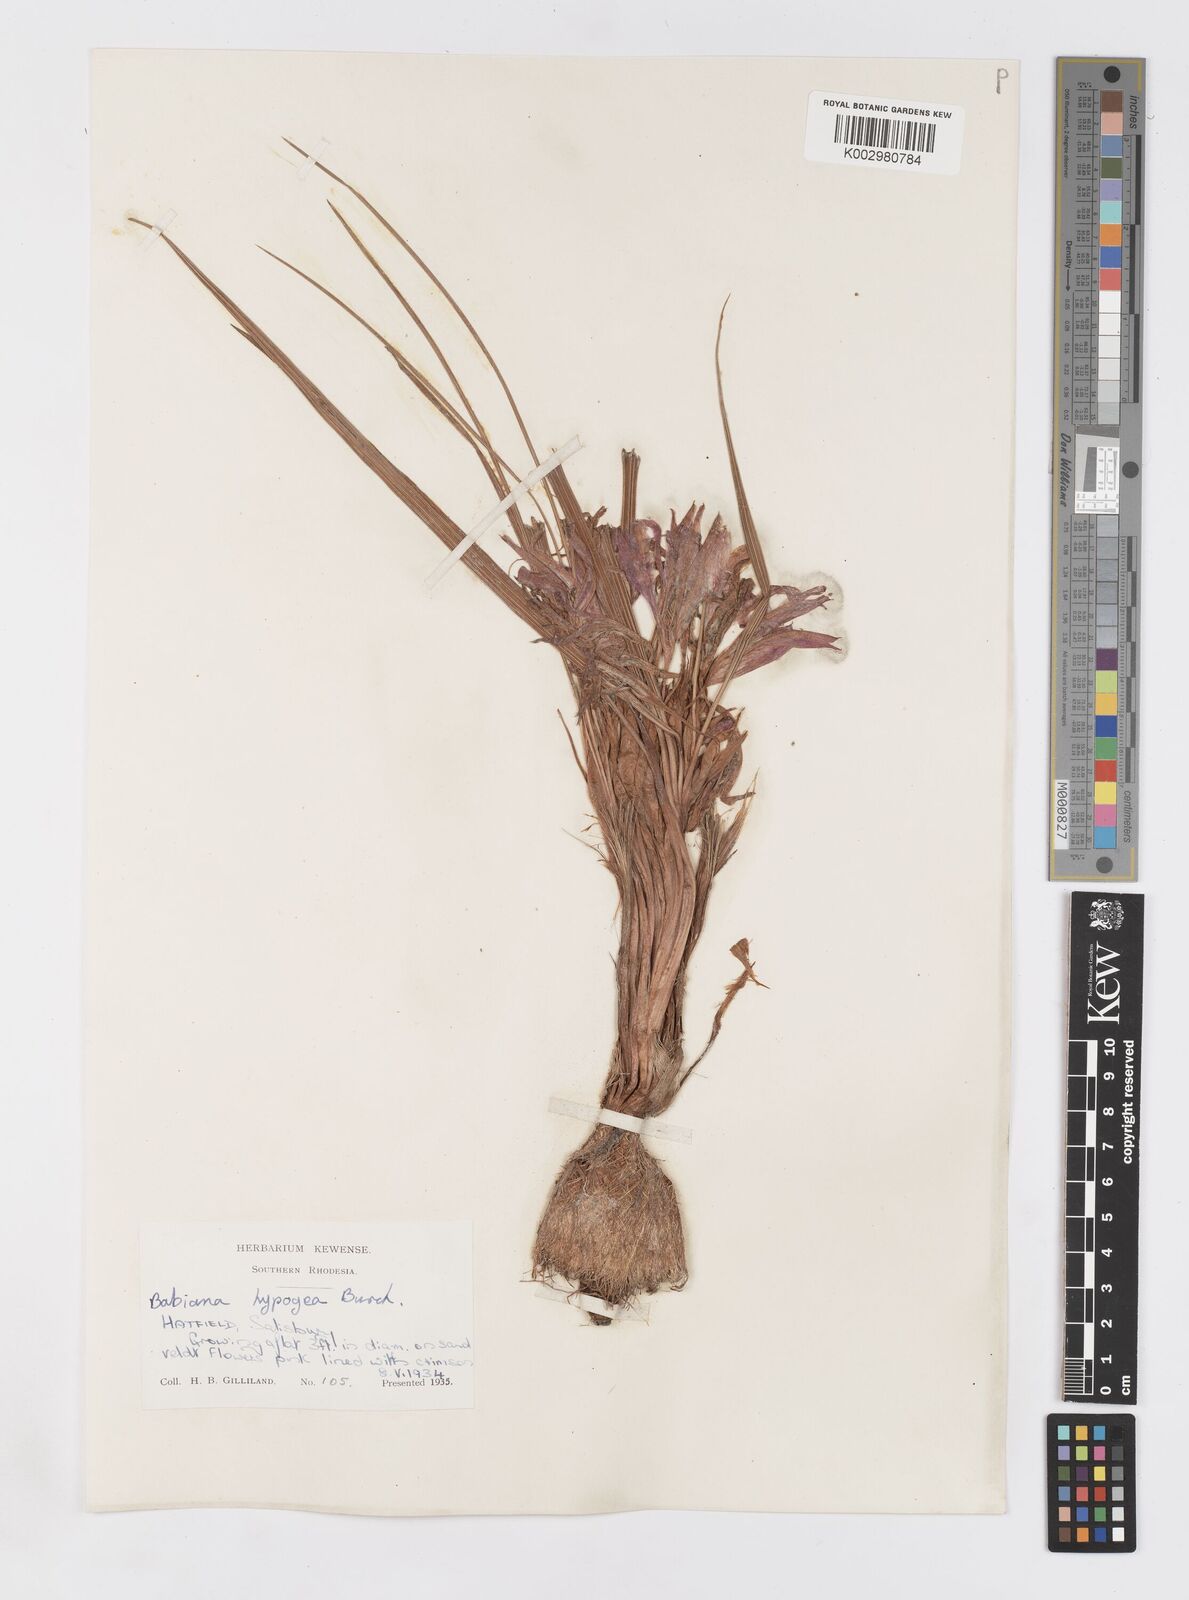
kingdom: Plantae
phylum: Tracheophyta
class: Liliopsida
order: Asparagales
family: Iridaceae
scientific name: Iridaceae
